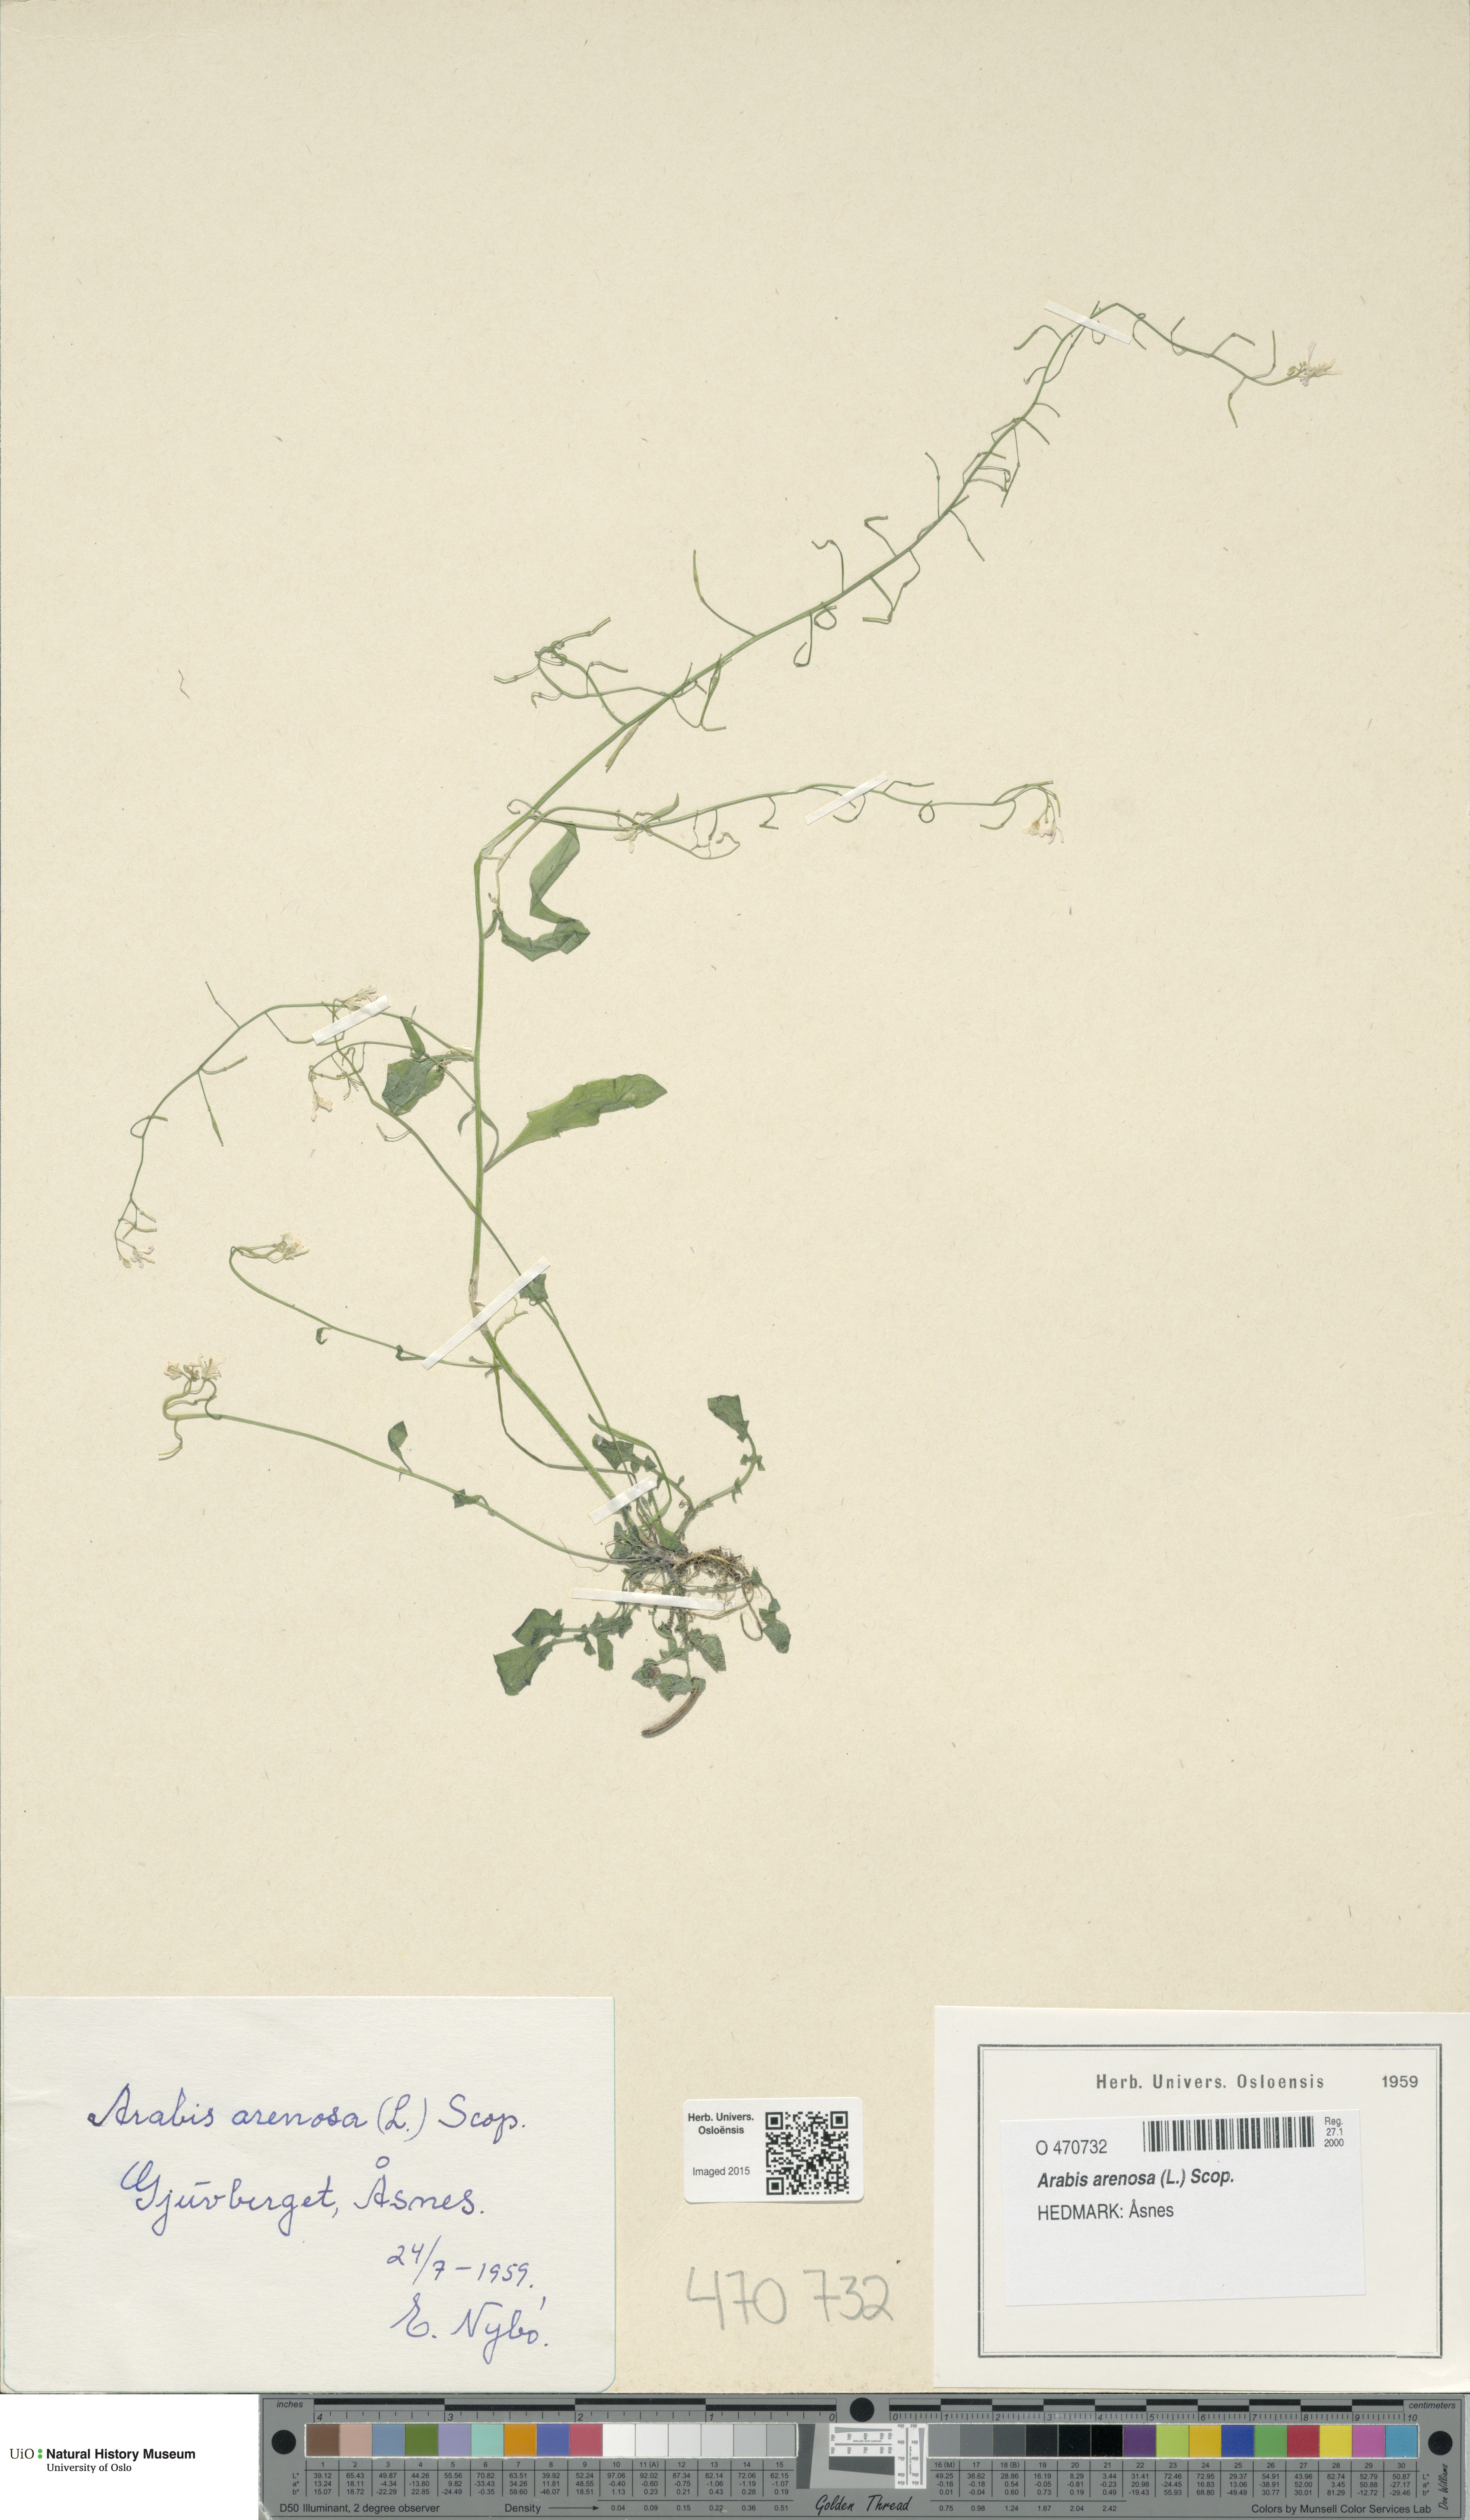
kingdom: Plantae
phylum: Tracheophyta
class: Magnoliopsida
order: Brassicales
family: Brassicaceae
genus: Arabidopsis
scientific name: Arabidopsis arenosa
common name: Sand rock-cress
